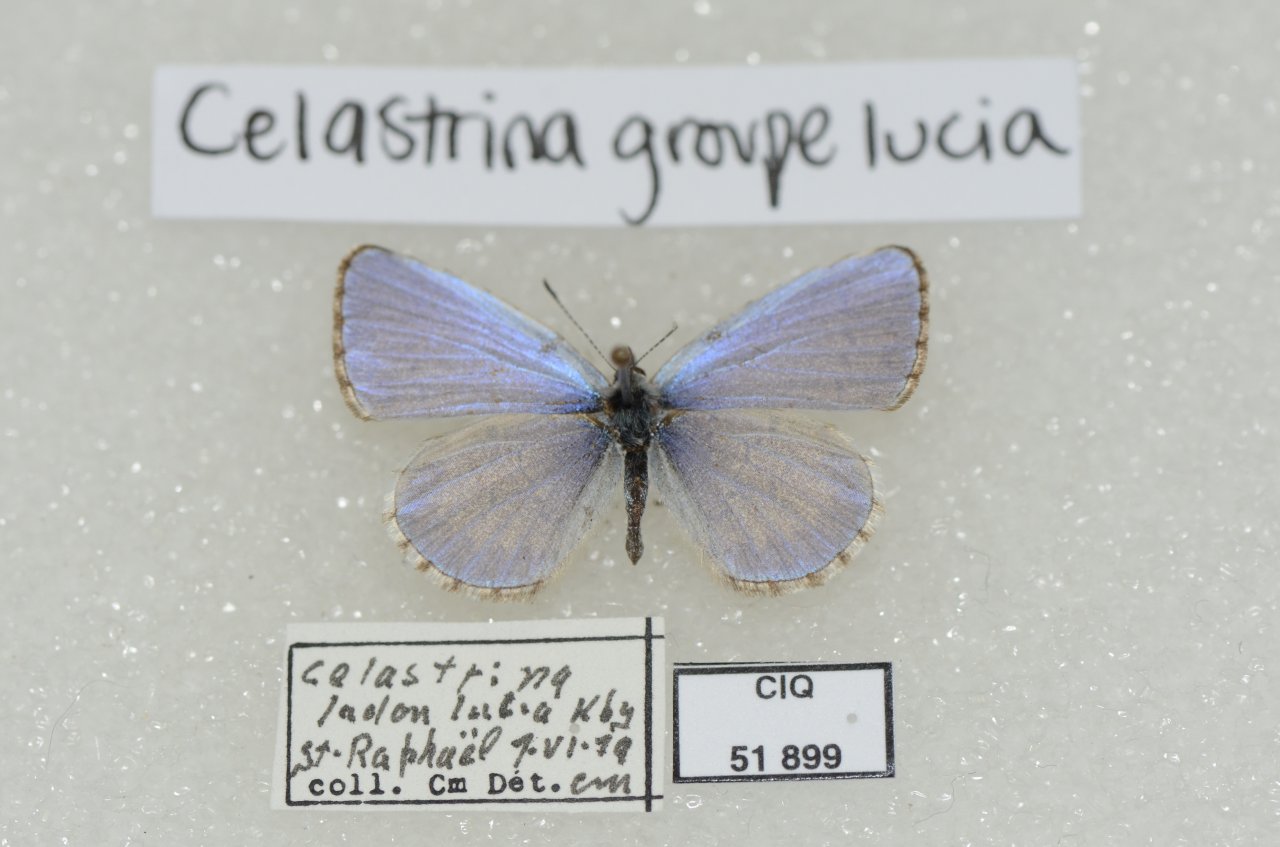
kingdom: Animalia
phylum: Arthropoda
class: Insecta
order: Lepidoptera
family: Lycaenidae
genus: Celastrina
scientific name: Celastrina lucia
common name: Northern Spring Azure
